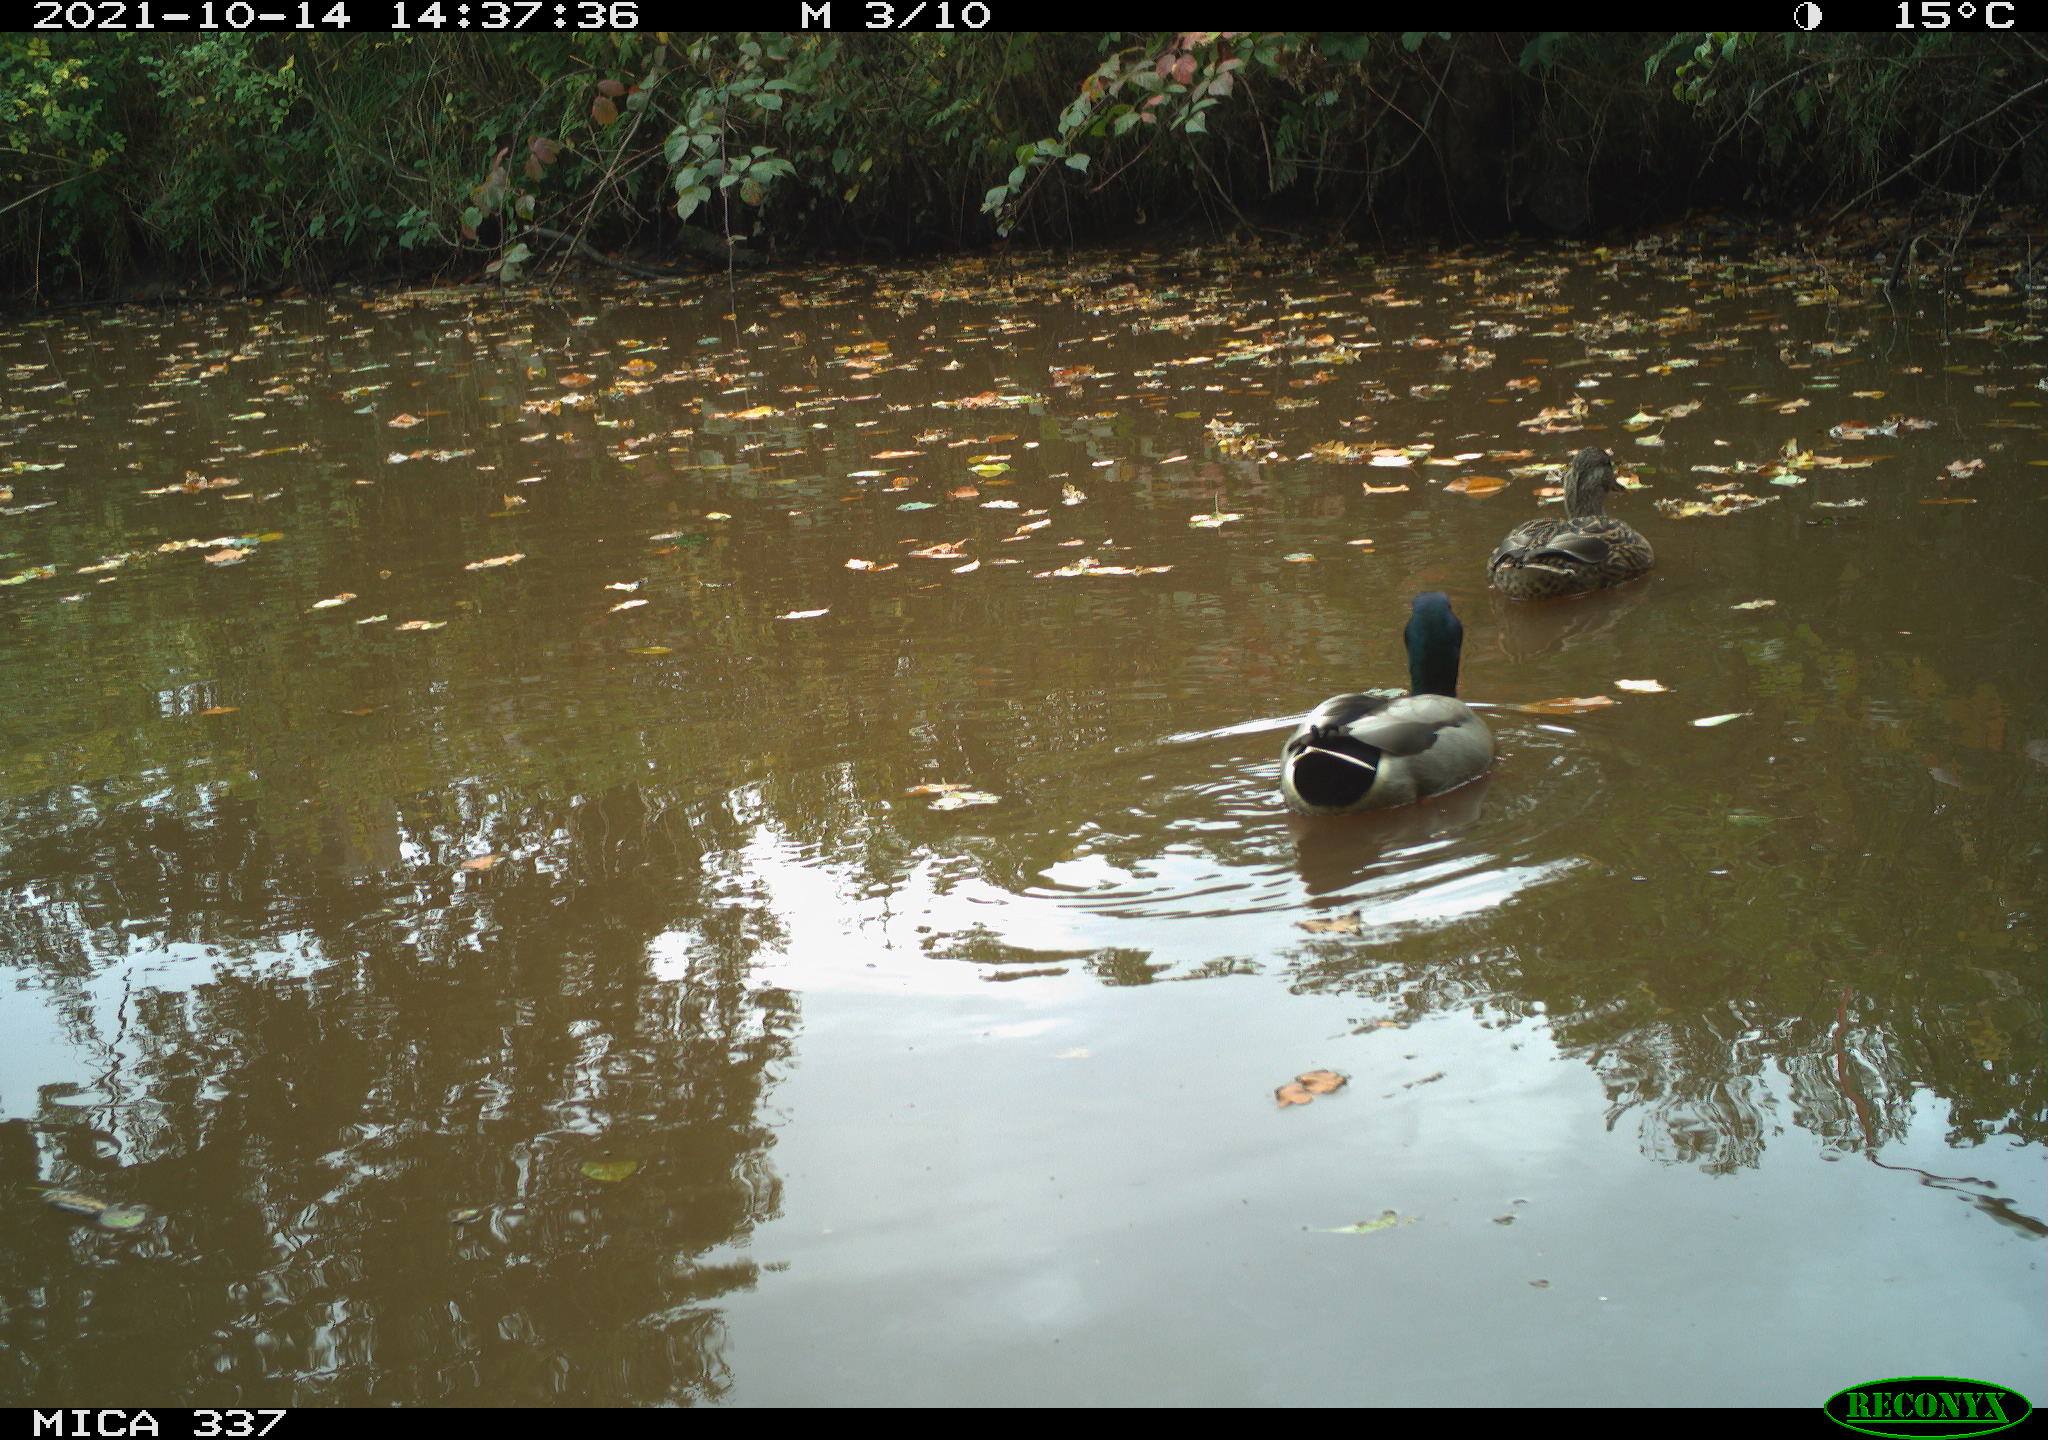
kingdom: Animalia
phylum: Chordata
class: Aves
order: Anseriformes
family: Anatidae
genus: Anas
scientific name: Anas platyrhynchos
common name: Mallard
